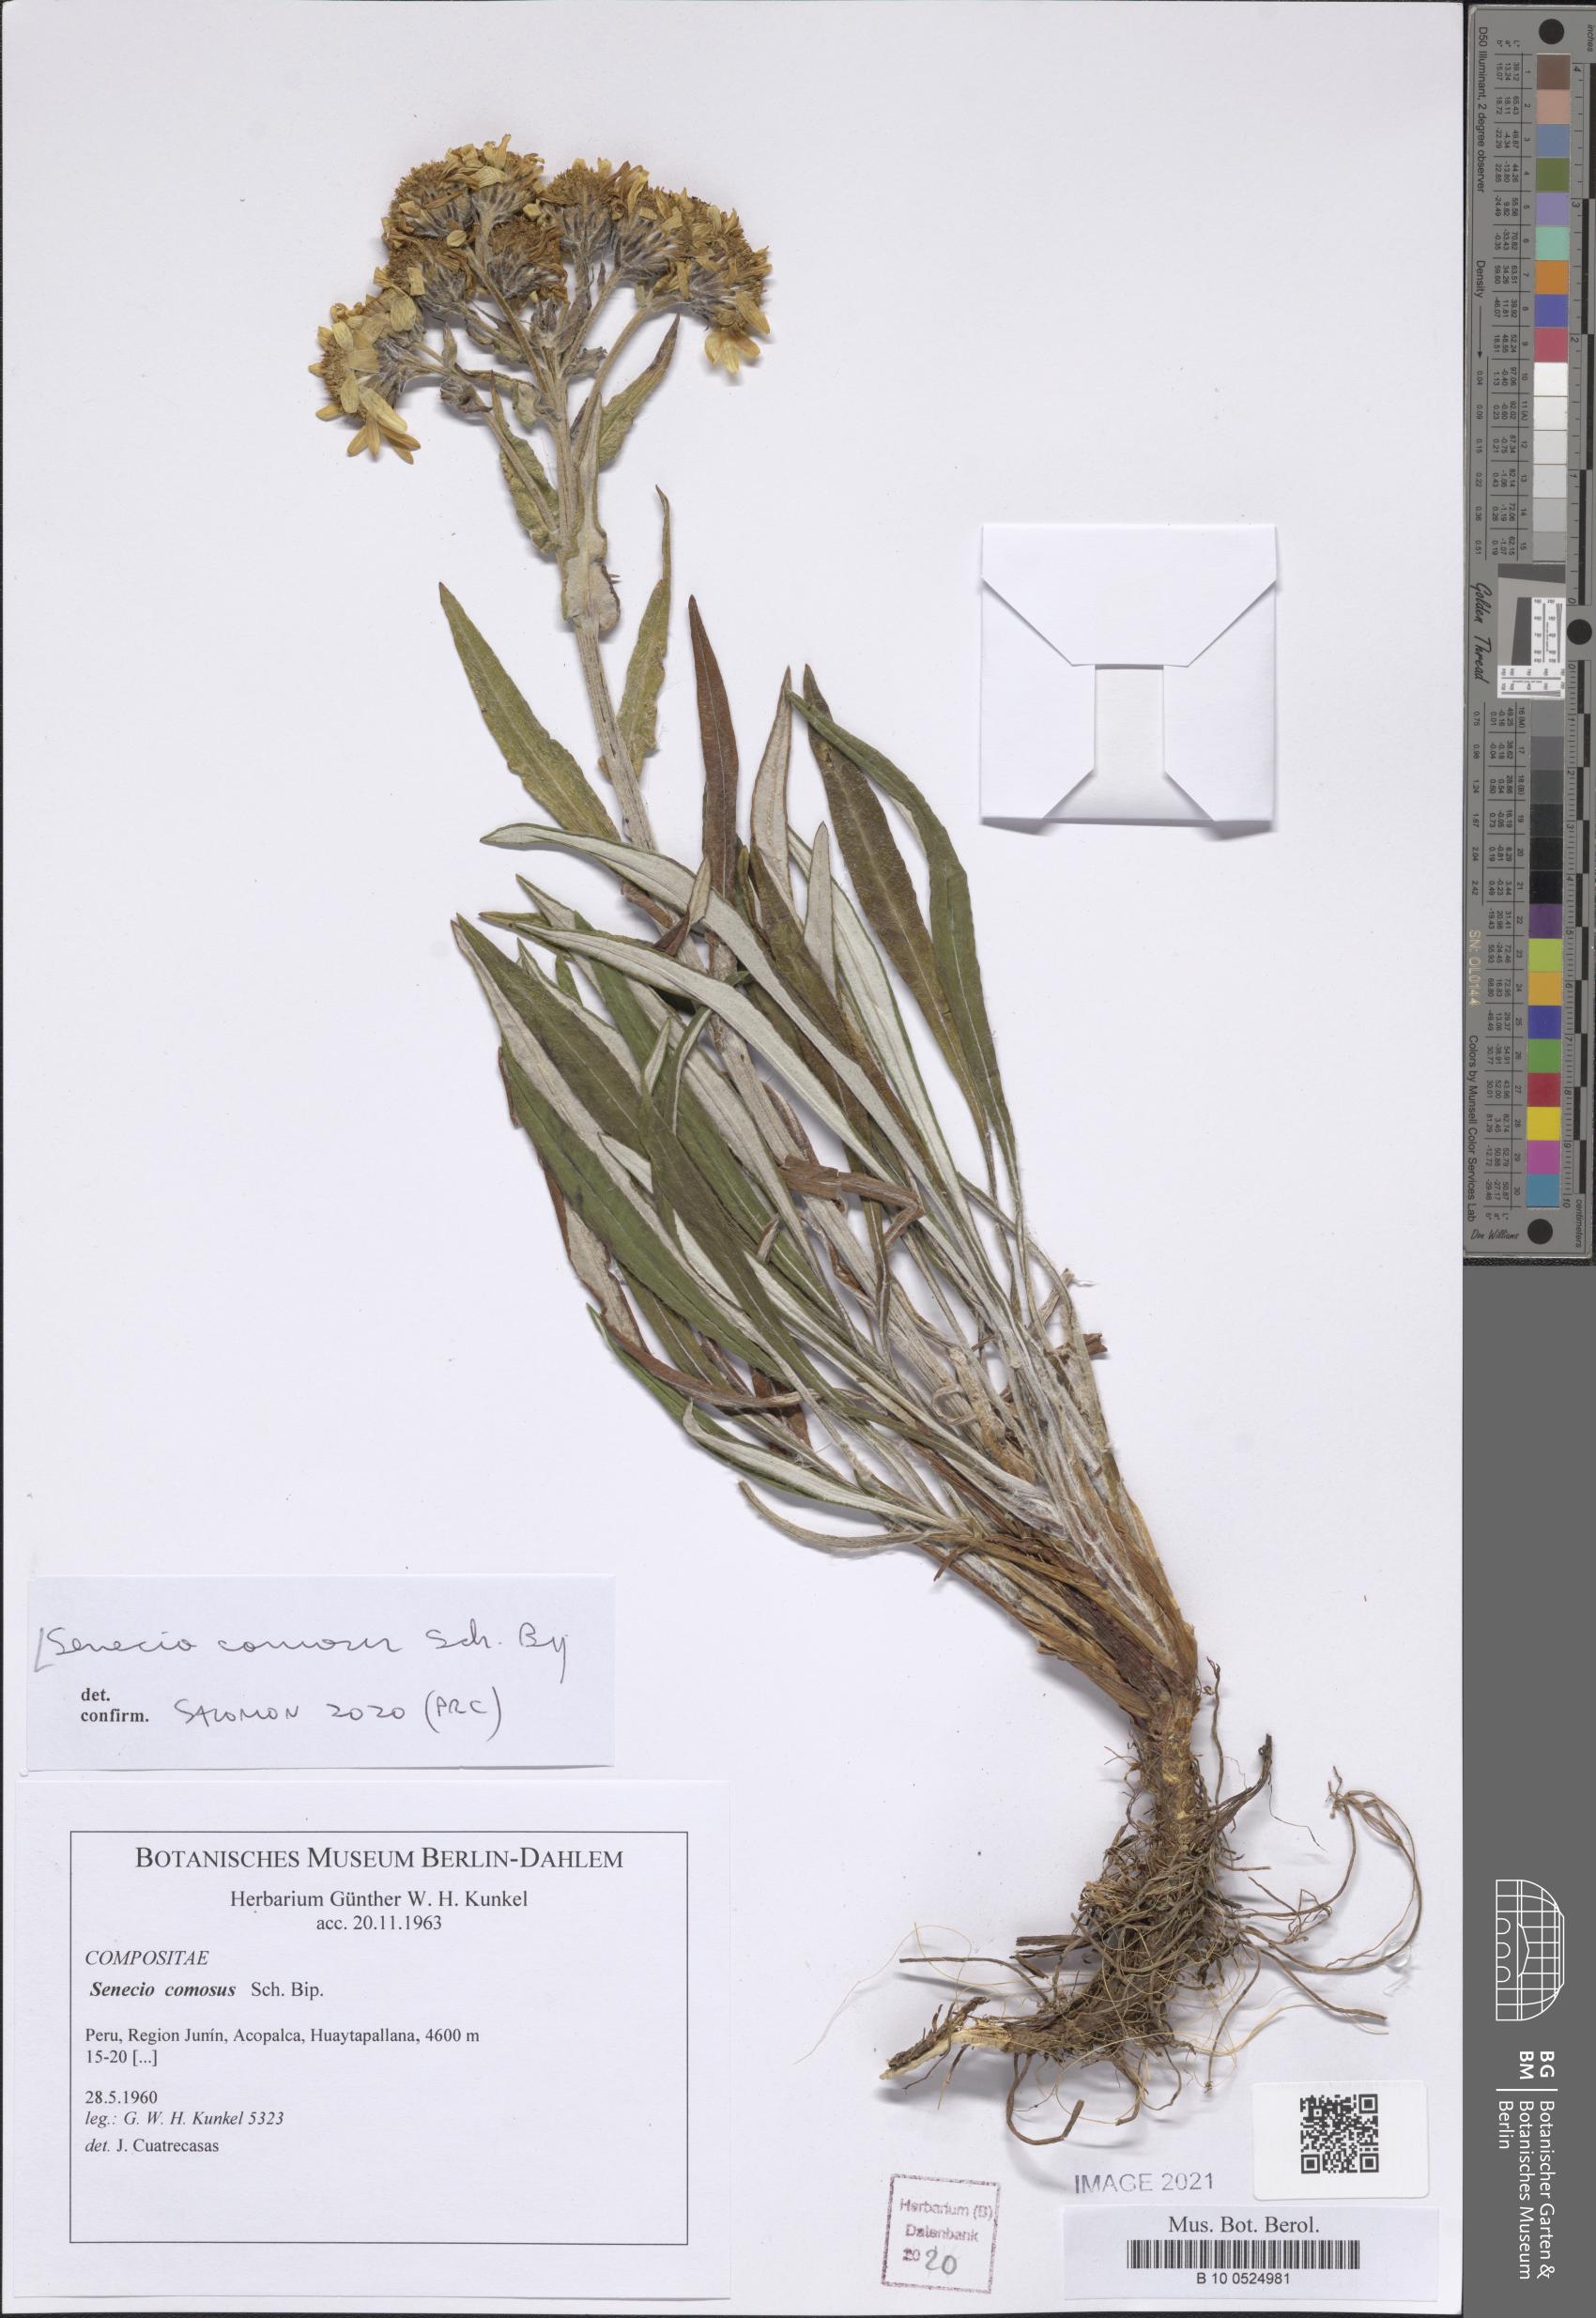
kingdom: Plantae
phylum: Tracheophyta
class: Magnoliopsida
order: Asterales
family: Asteraceae
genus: Senecio
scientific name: Senecio comosus
